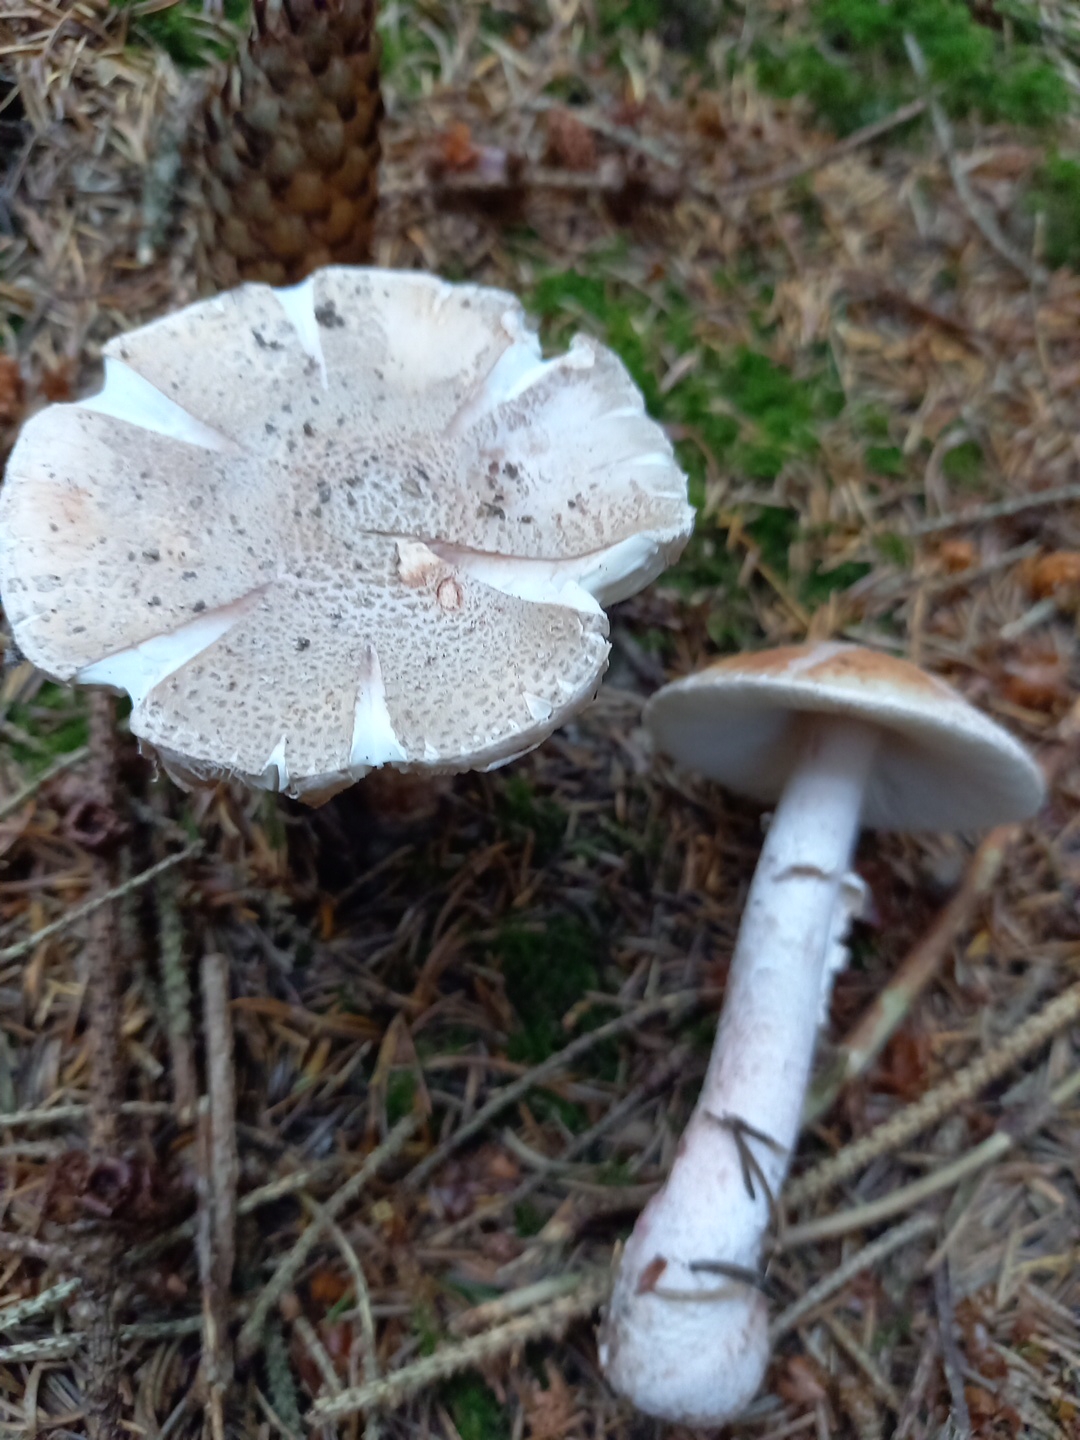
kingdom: Fungi
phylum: Basidiomycota
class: Agaricomycetes
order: Agaricales
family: Amanitaceae
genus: Amanita
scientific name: Amanita rubescens
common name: rødmende fluesvamp
